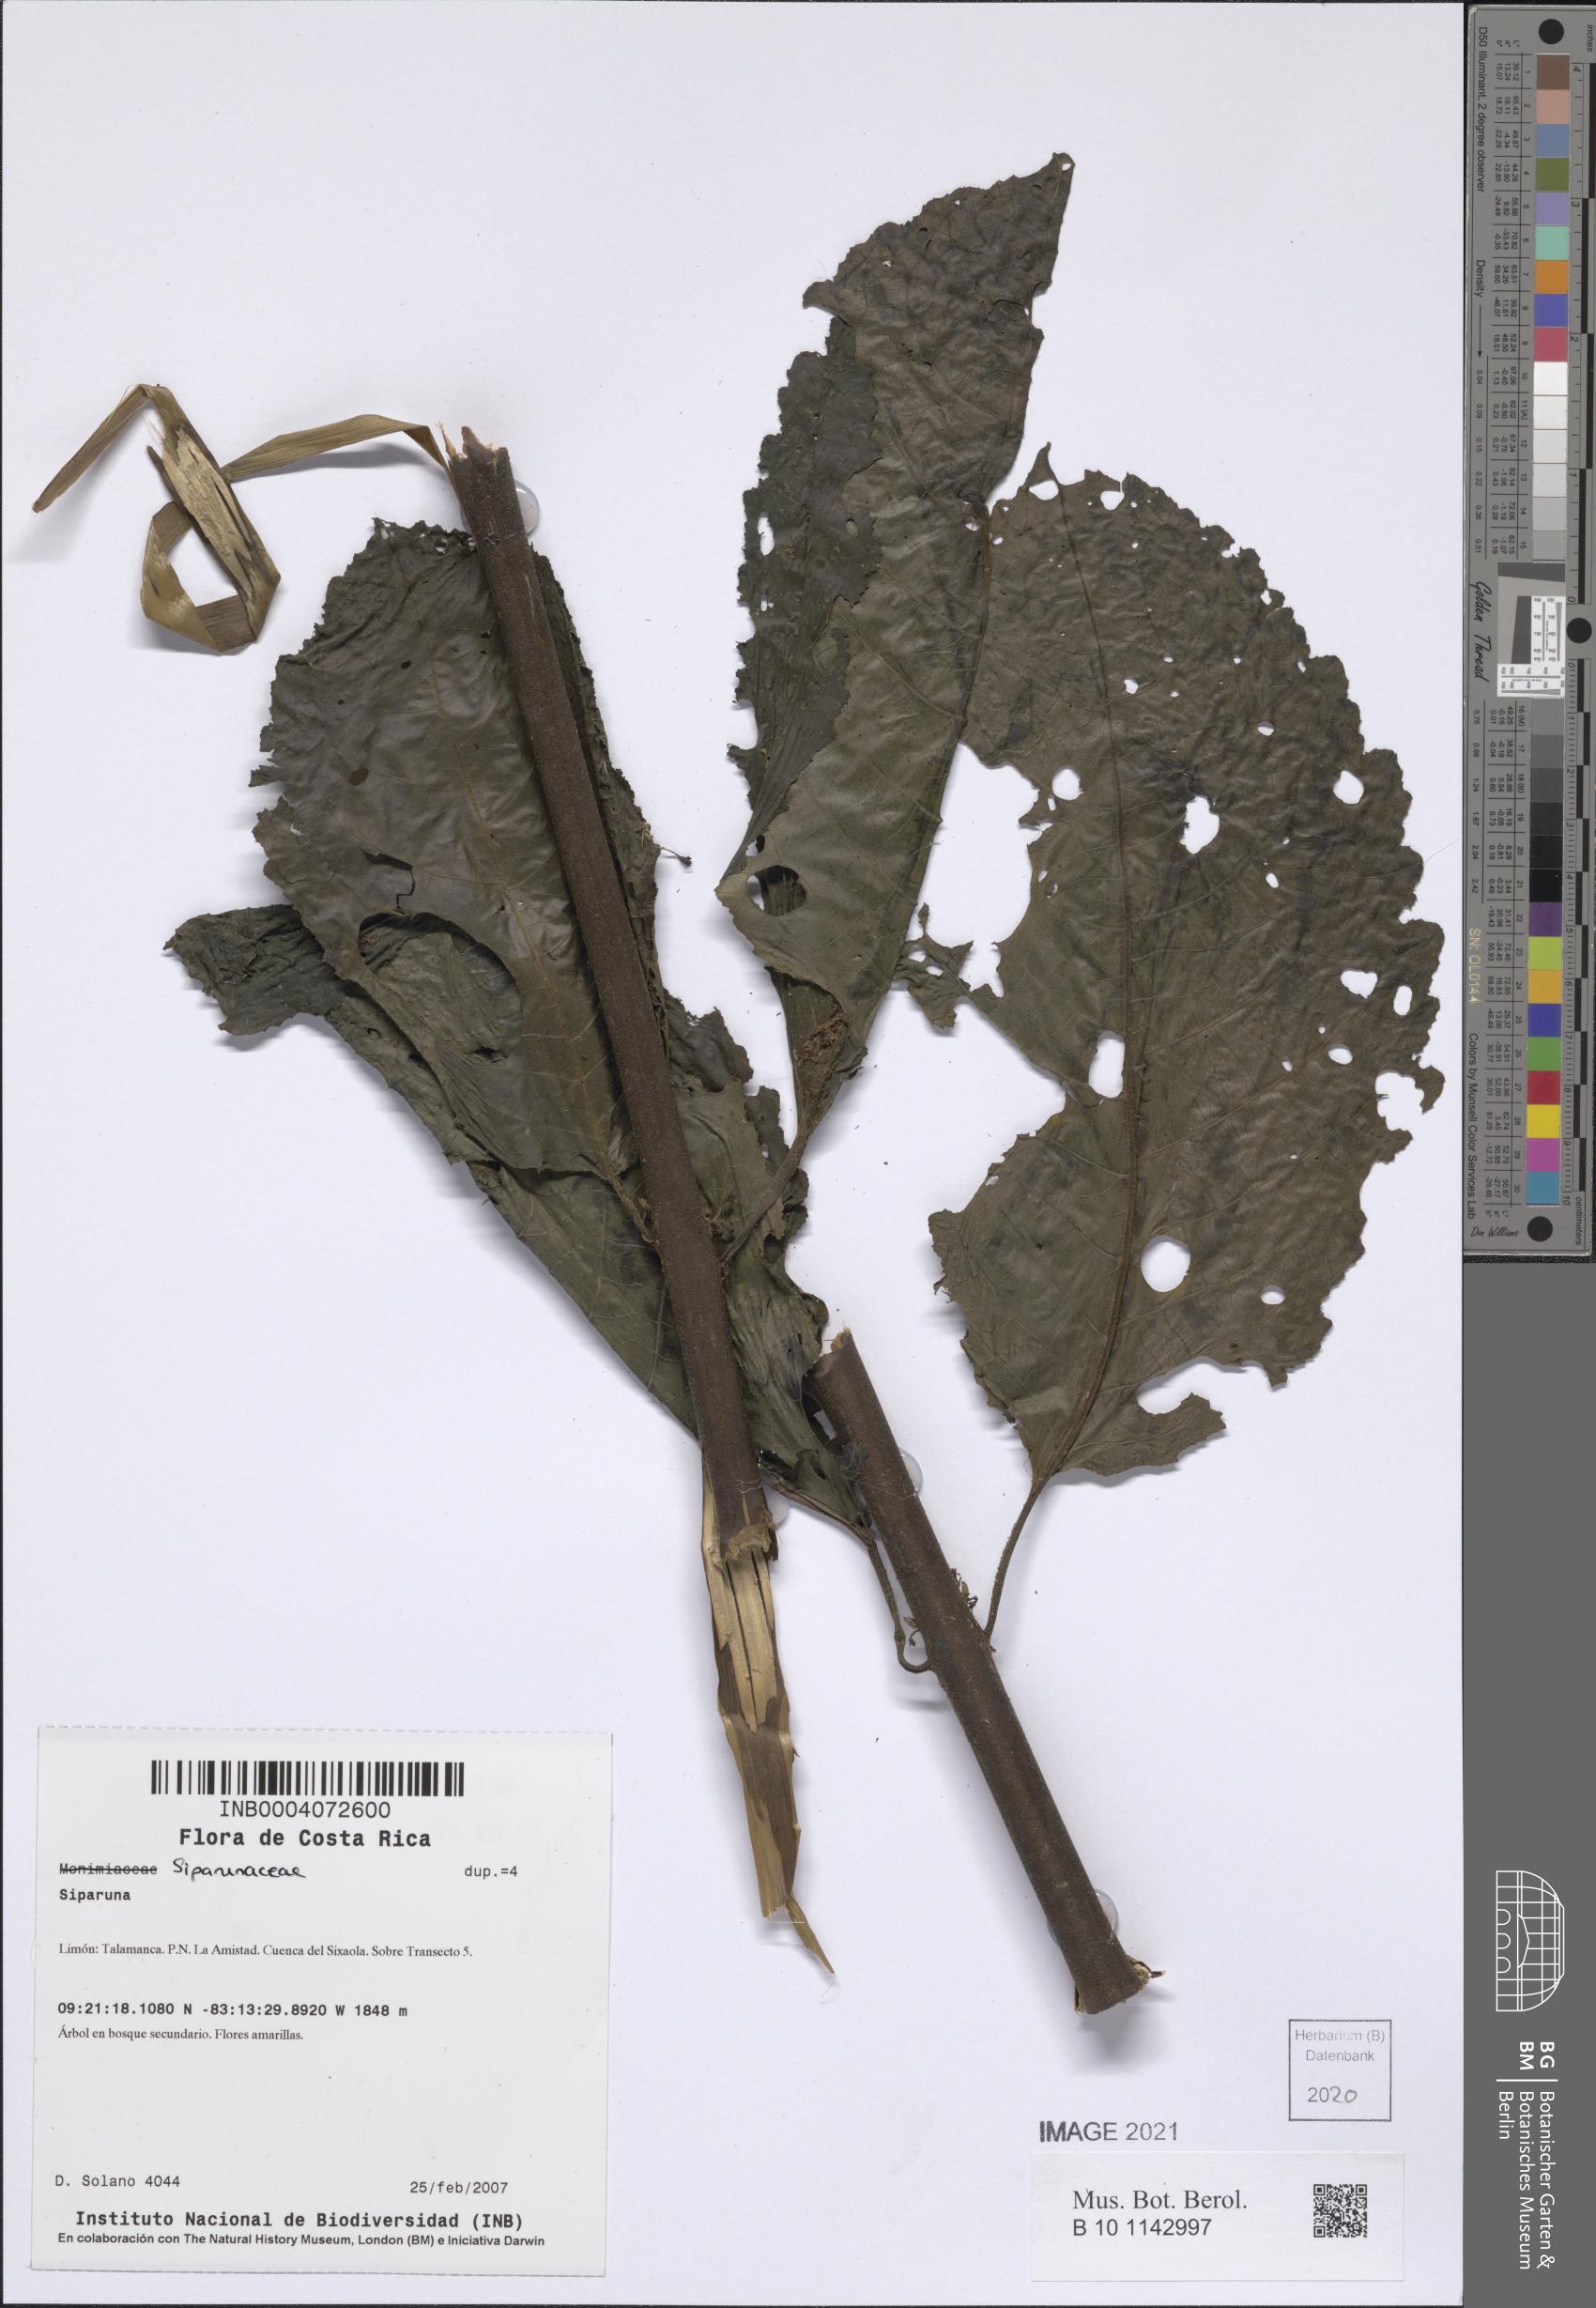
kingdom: Plantae
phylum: Tracheophyta
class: Magnoliopsida
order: Laurales
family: Siparunaceae
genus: Siparuna
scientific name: Siparuna
